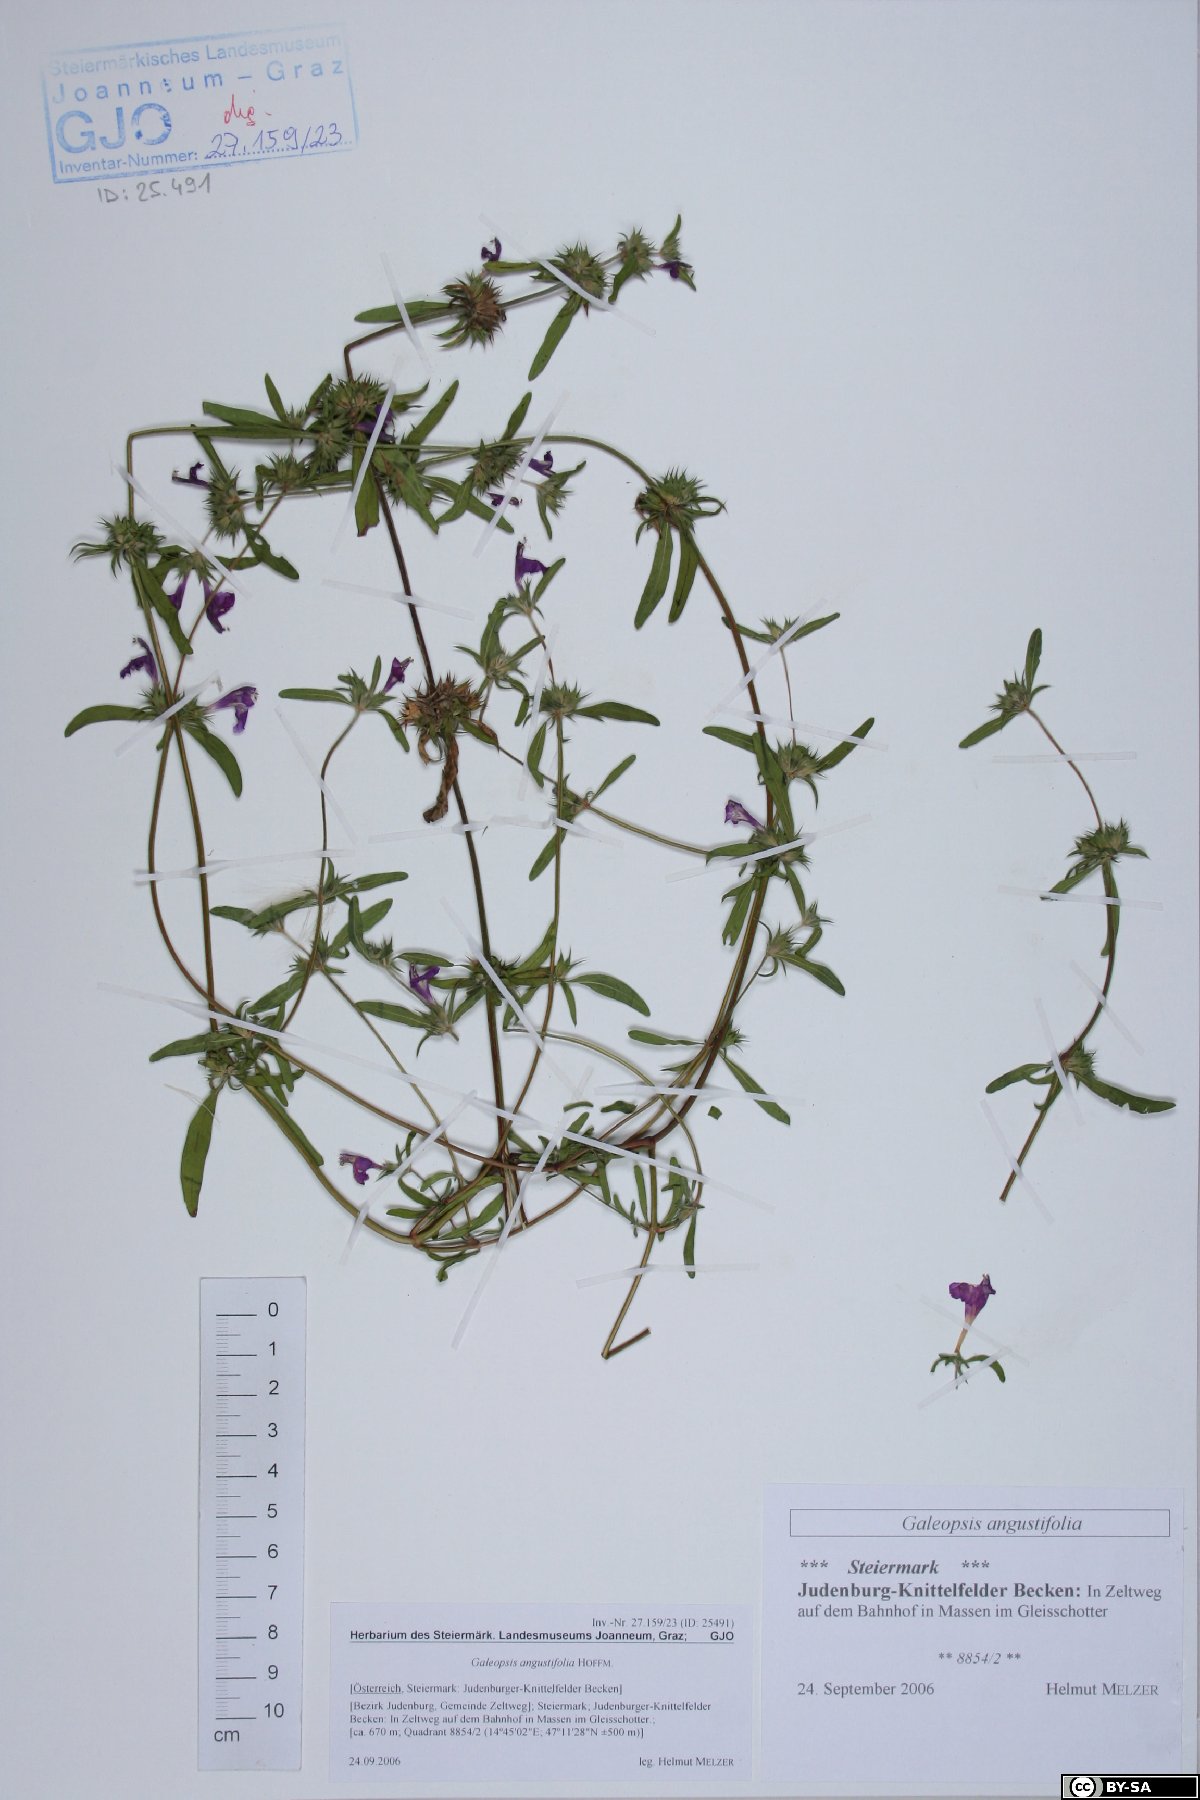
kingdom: Plantae
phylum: Tracheophyta
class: Magnoliopsida
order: Lamiales
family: Lamiaceae
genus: Galeopsis
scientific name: Galeopsis angustifolia
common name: Red hemp-nettle
